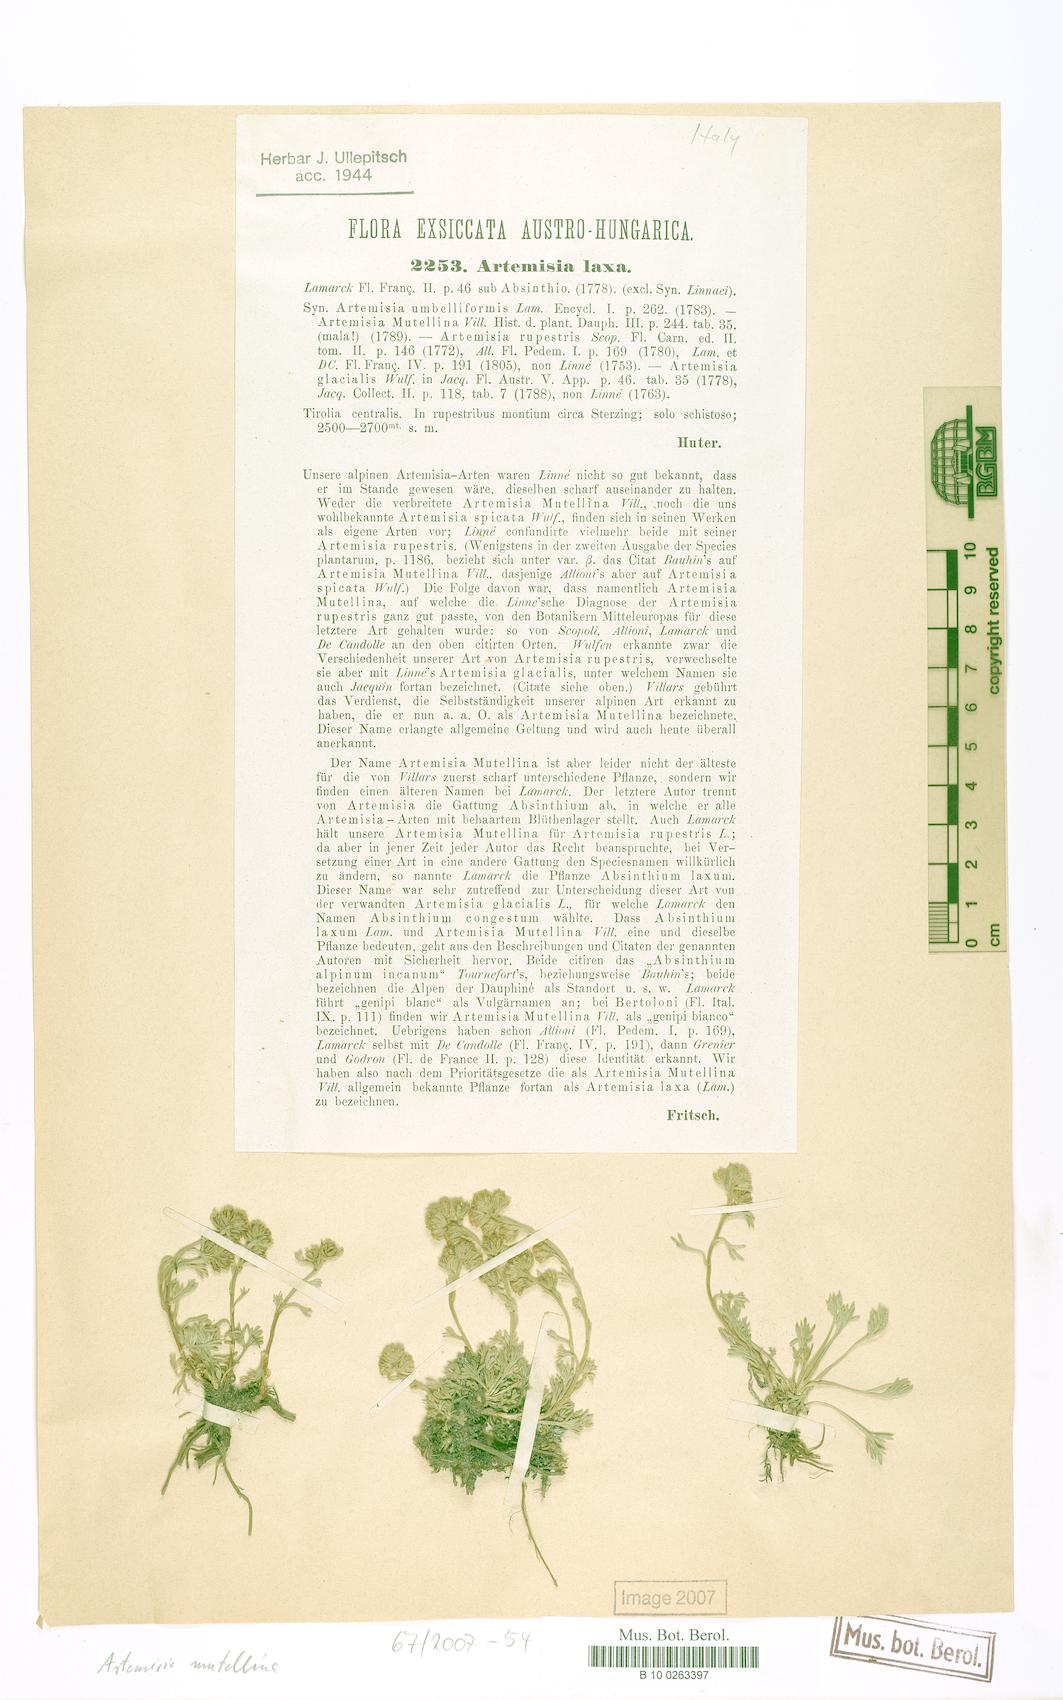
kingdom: Plantae
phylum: Tracheophyta
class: Magnoliopsida
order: Asterales
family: Asteraceae
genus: Artemisia
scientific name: Artemisia mutellina
